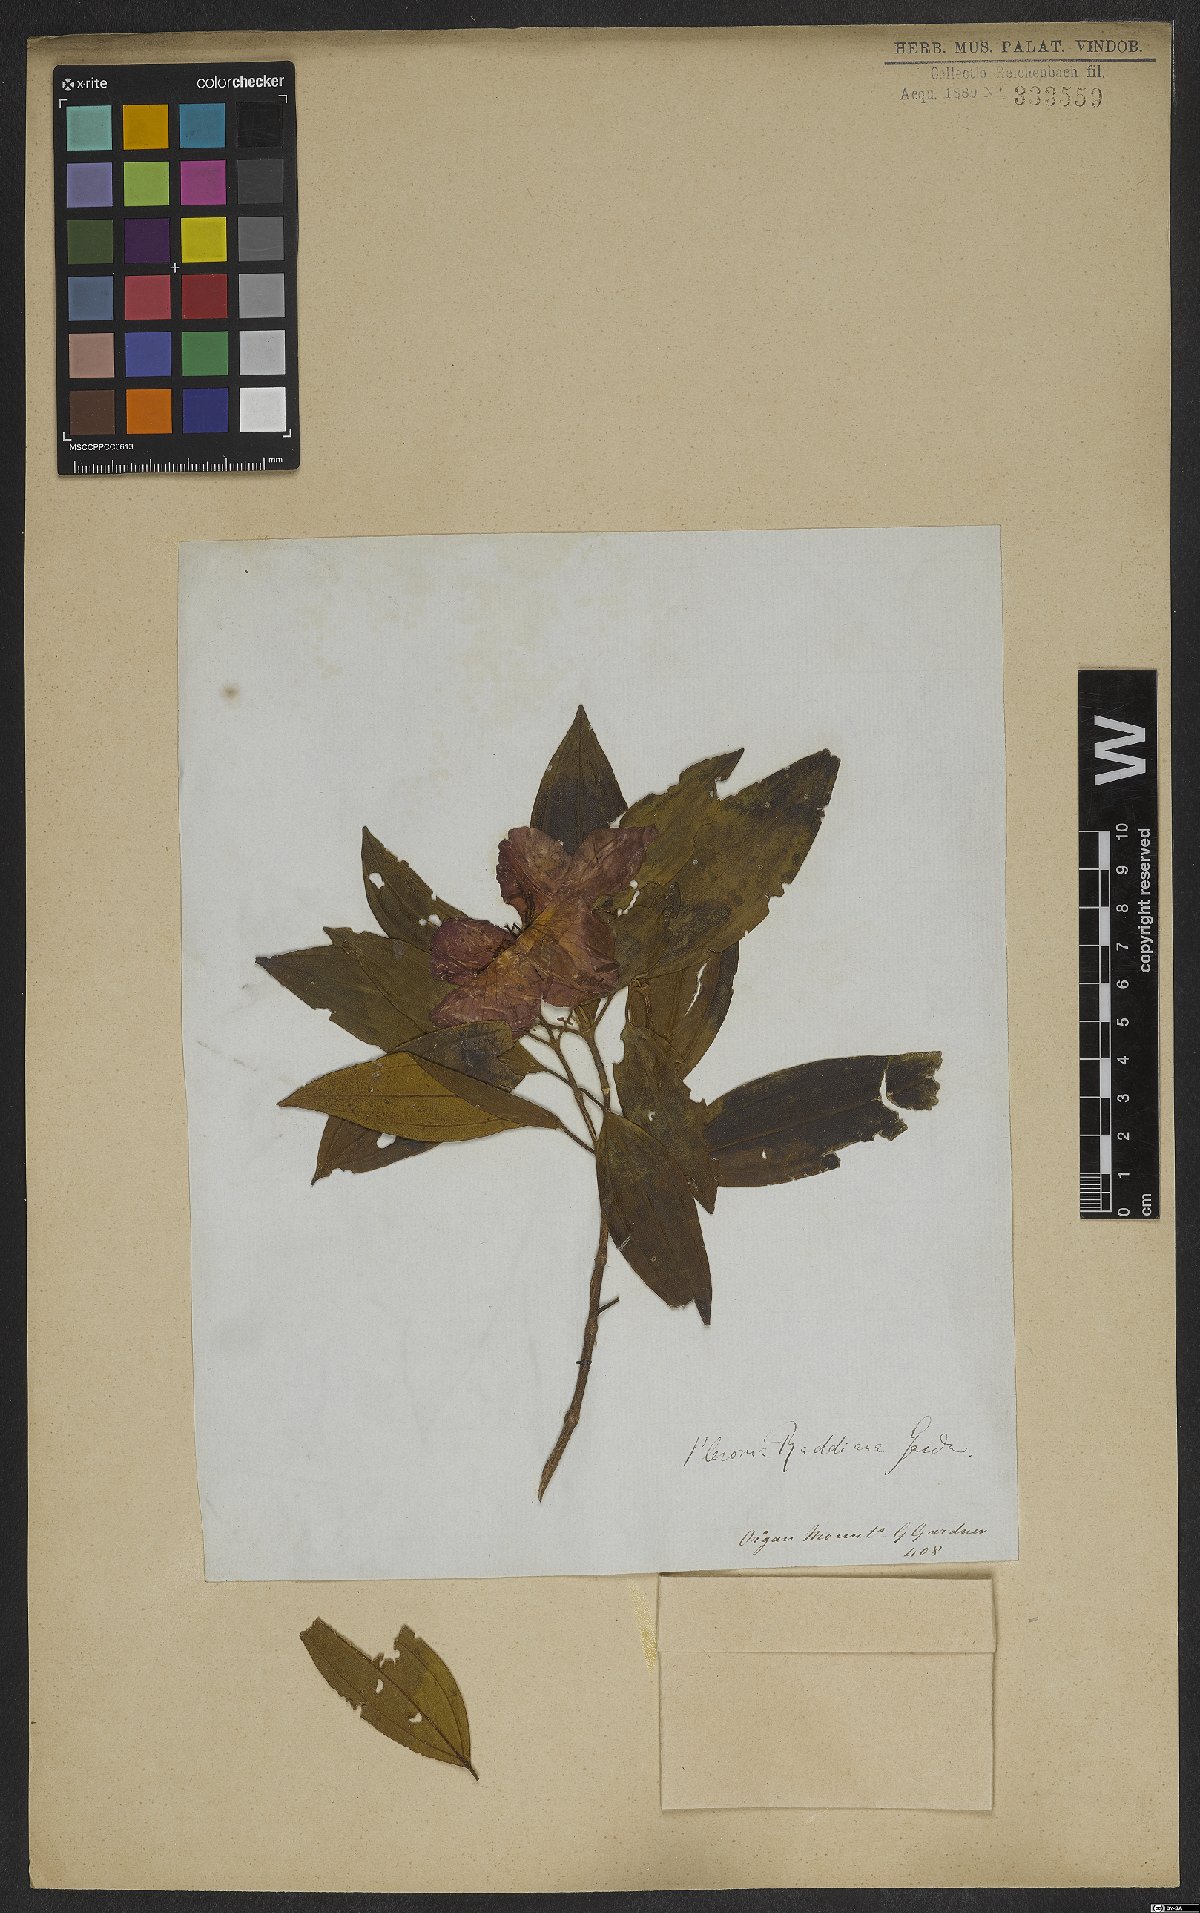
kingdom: Plantae
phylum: Tracheophyta
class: Magnoliopsida
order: Myrtales
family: Melastomataceae
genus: Pleroma
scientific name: Pleroma raddianum
